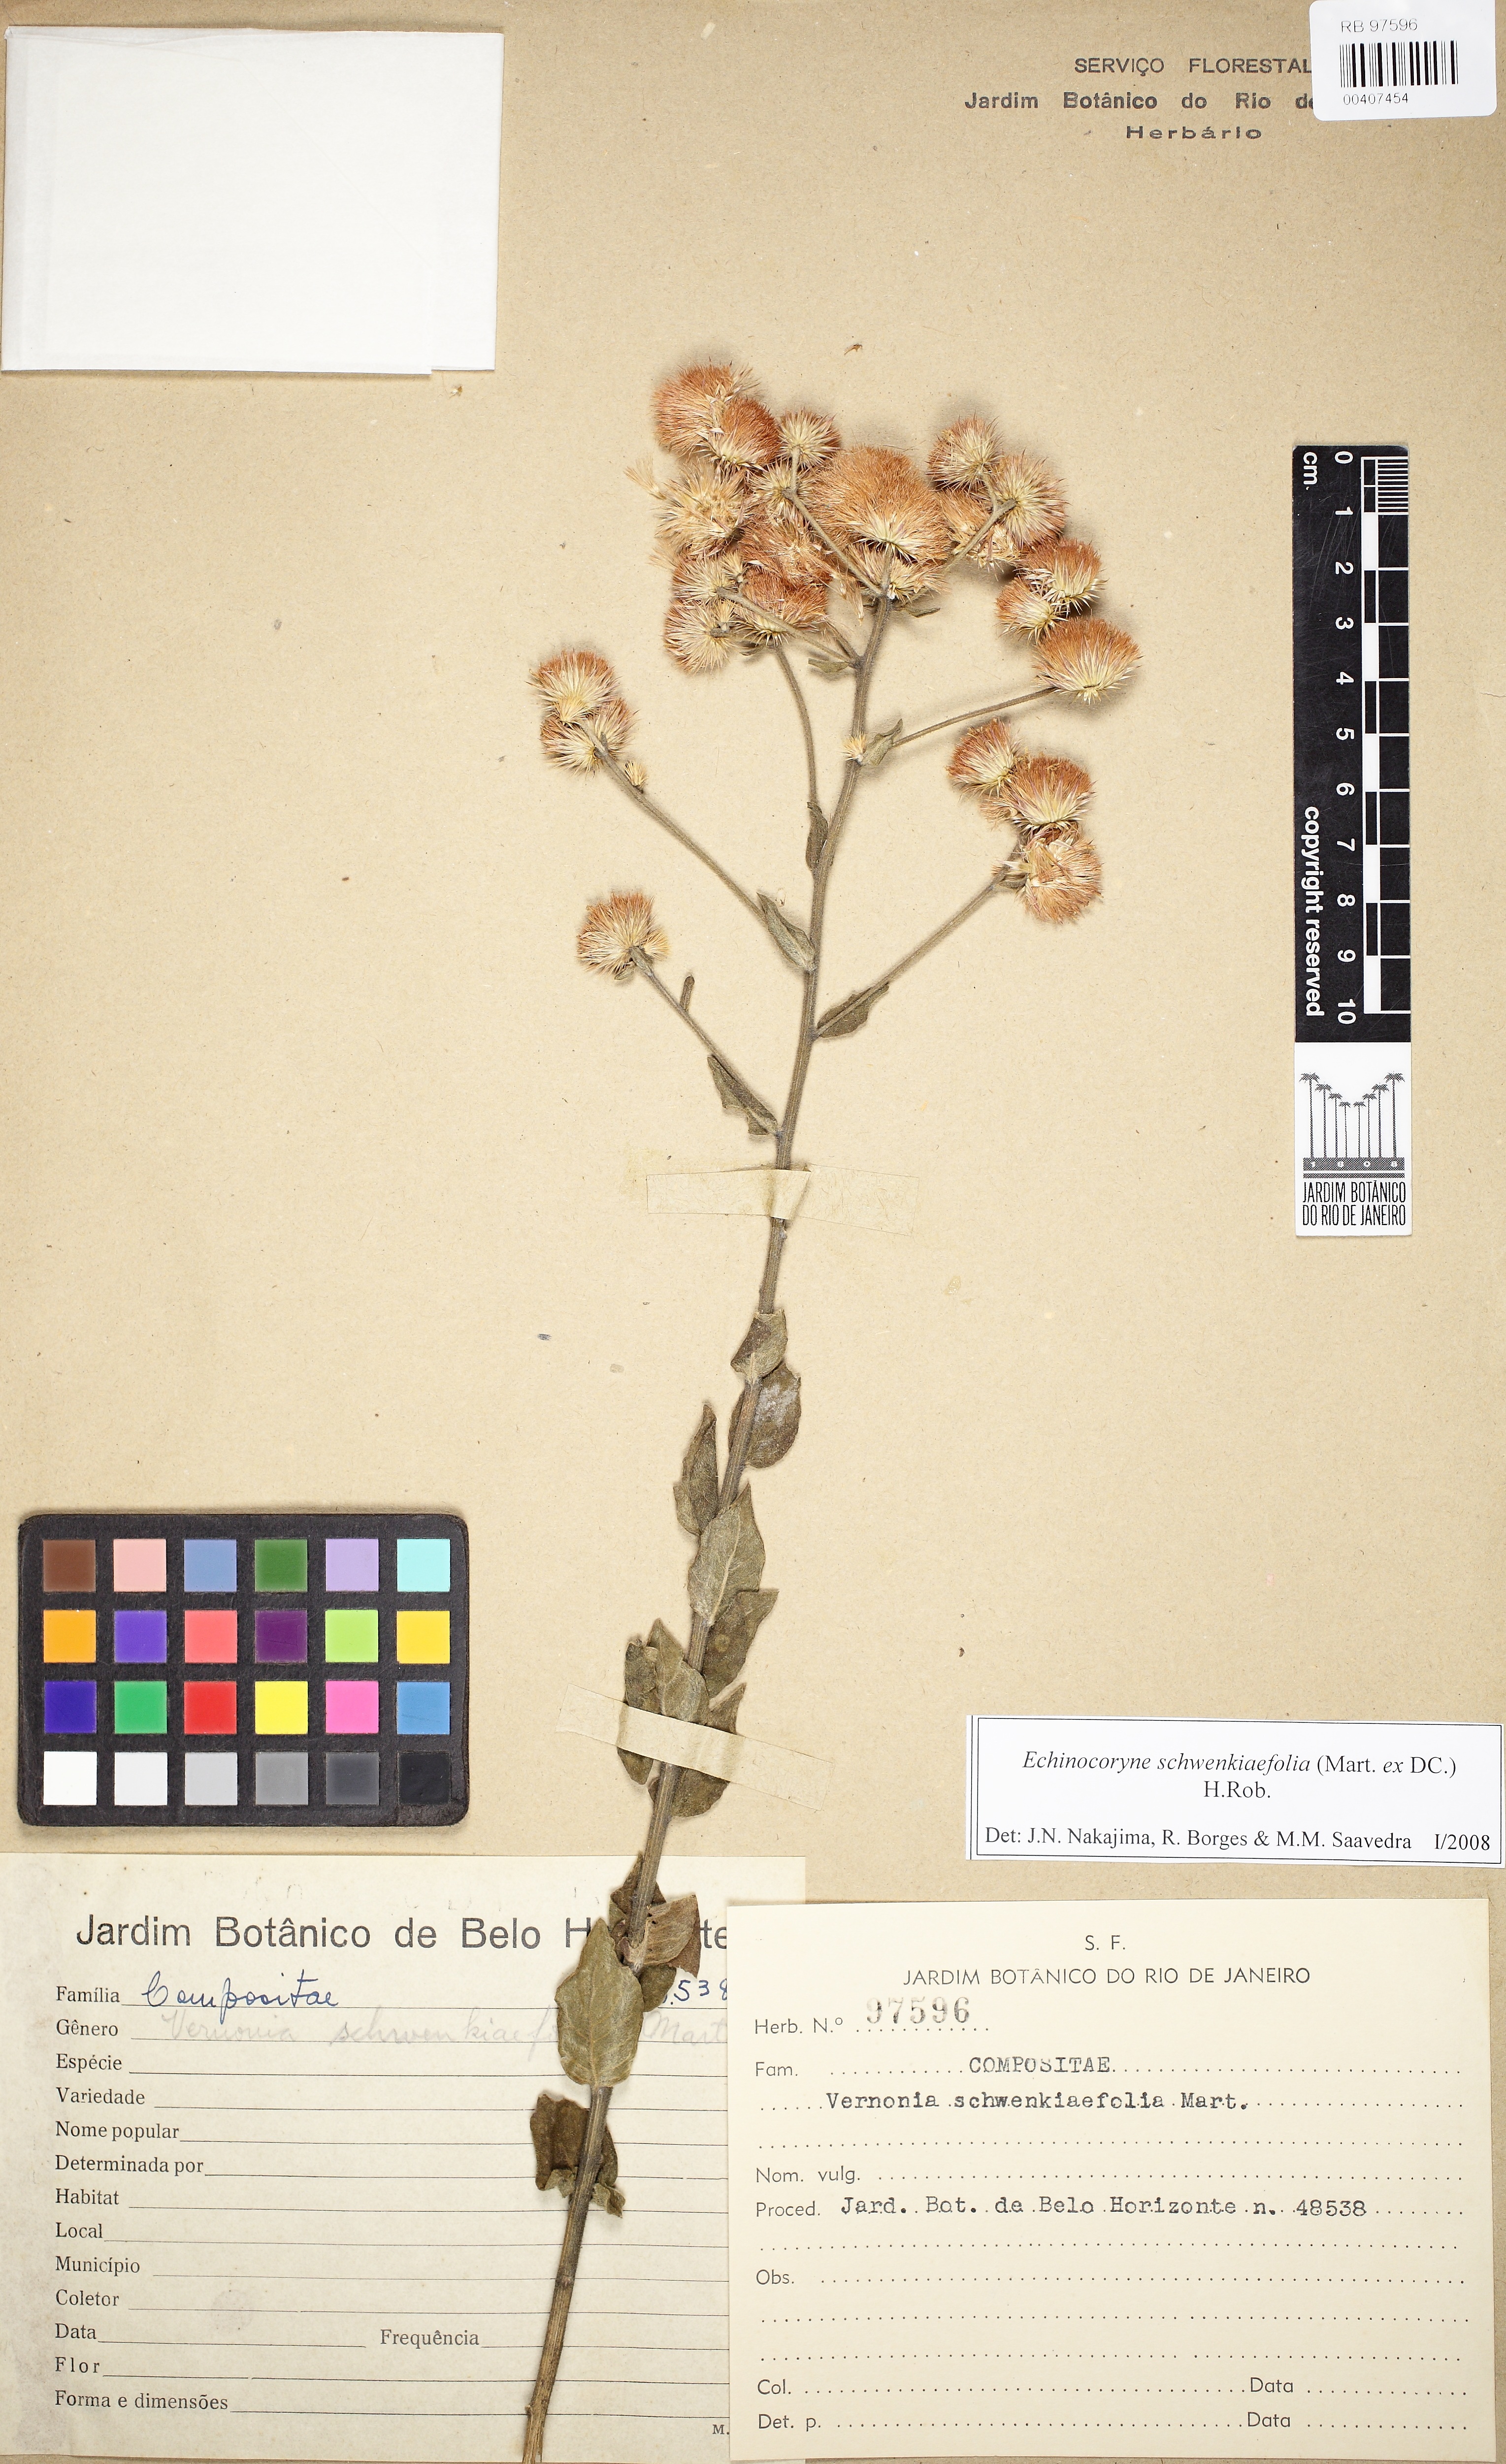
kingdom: Plantae
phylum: Tracheophyta
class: Magnoliopsida
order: Asterales
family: Asteraceae
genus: Echinocoryne
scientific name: Echinocoryne schwenkiaefolia
